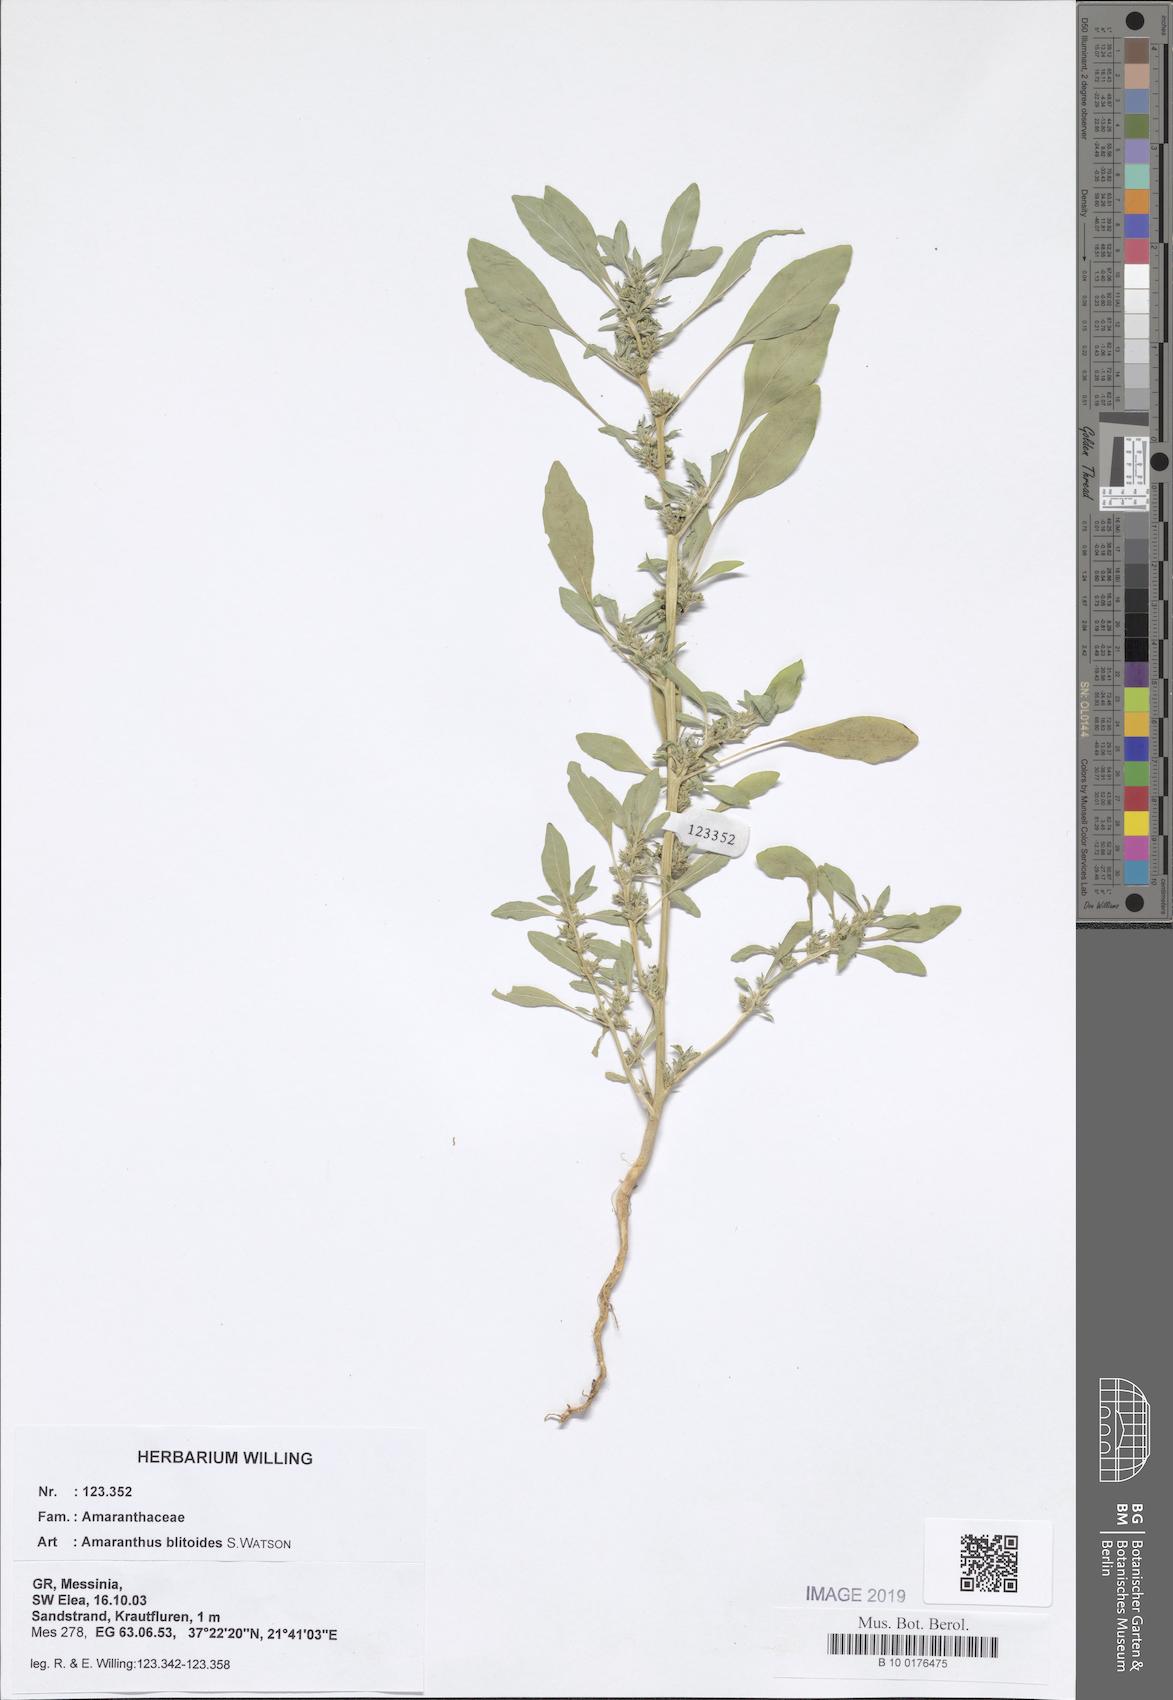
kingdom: Plantae
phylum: Tracheophyta
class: Magnoliopsida
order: Caryophyllales
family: Amaranthaceae
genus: Amaranthus
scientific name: Amaranthus blitoides
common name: Prostrate pigweed
